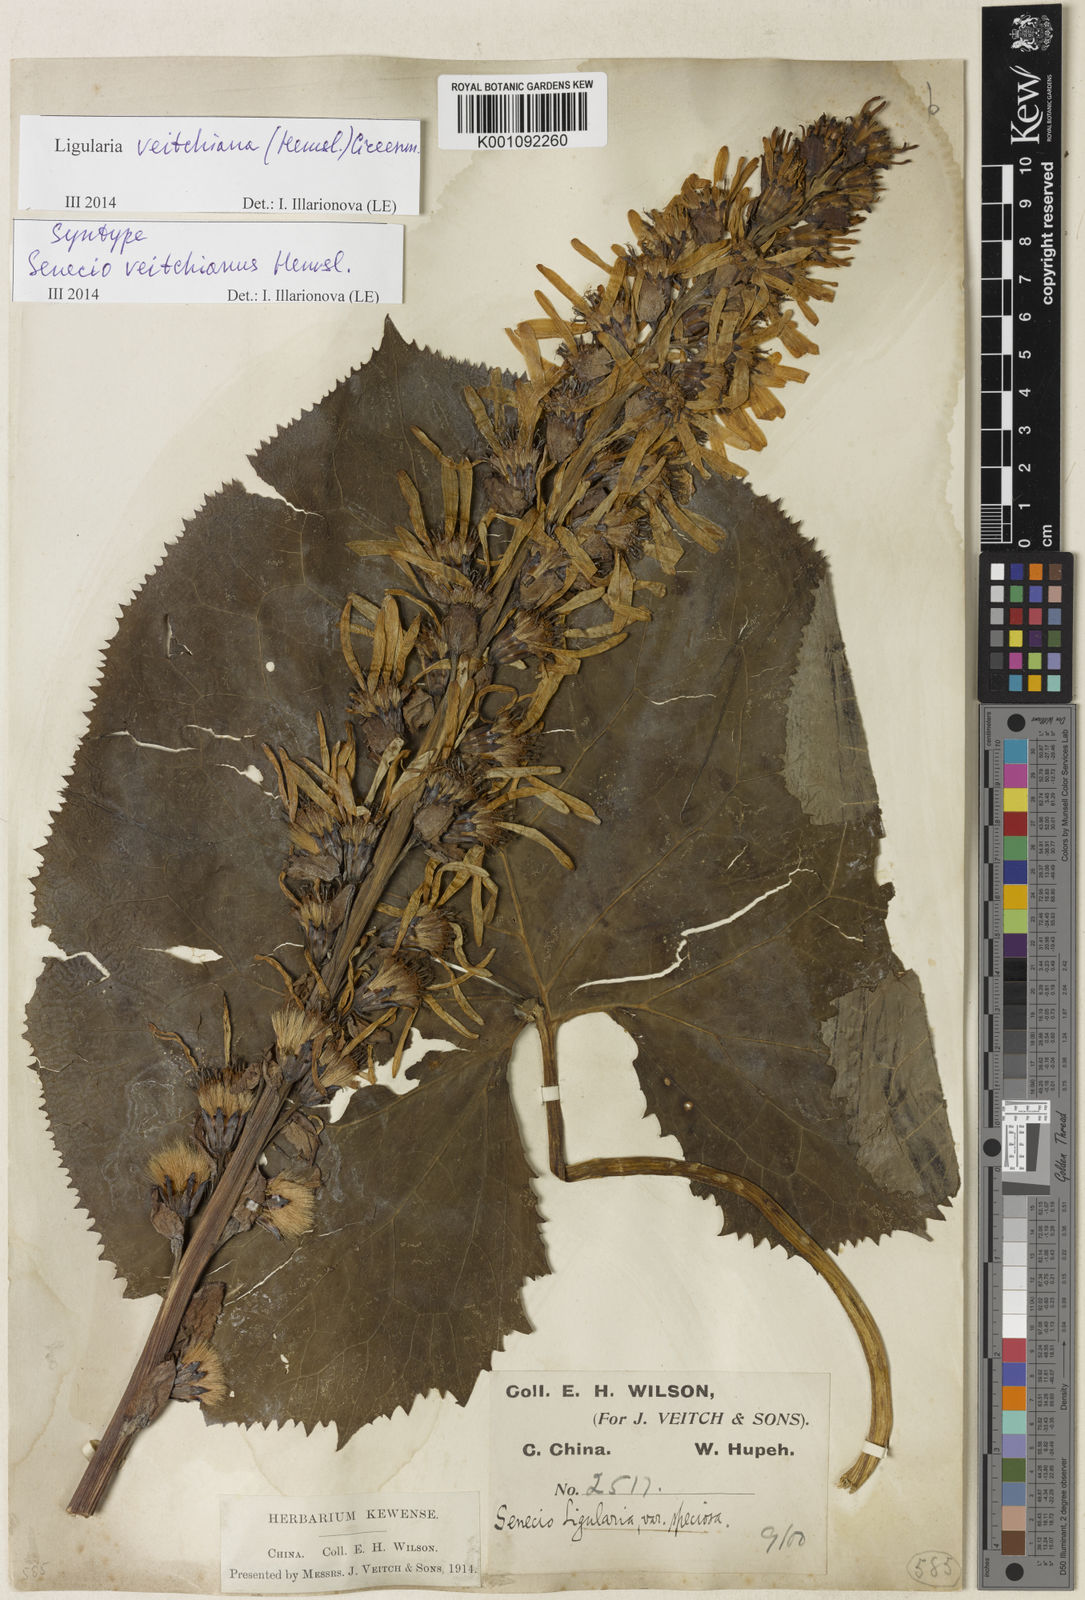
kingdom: Plantae
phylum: Tracheophyta
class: Magnoliopsida
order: Asterales
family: Asteraceae
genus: Ligularia
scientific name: Ligularia veitchiana
